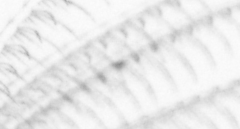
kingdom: Animalia
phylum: Arthropoda
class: Maxillopoda
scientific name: Maxillopoda
